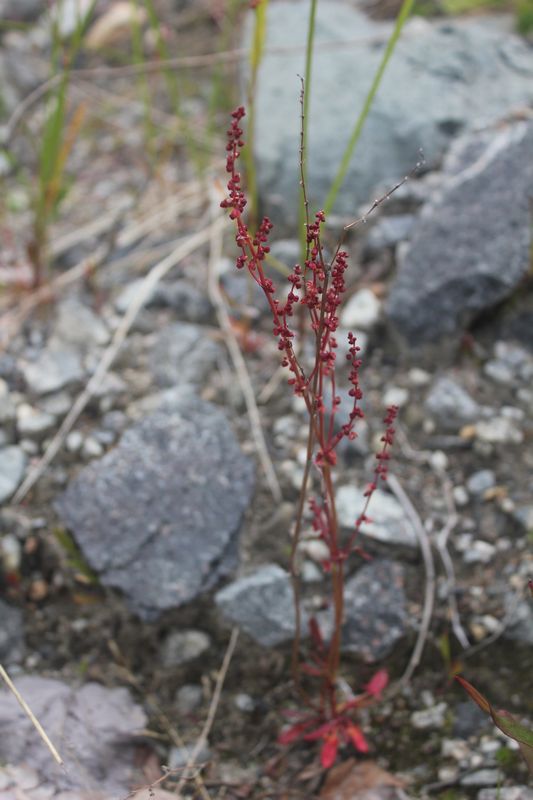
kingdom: Plantae
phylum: Tracheophyta
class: Magnoliopsida
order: Caryophyllales
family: Polygonaceae
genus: Rumex
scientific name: Rumex acetosella
